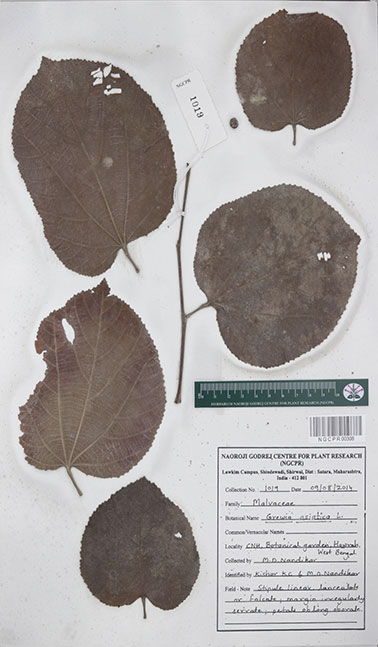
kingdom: Plantae
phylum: Tracheophyta
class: Magnoliopsida
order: Malvales
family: Malvaceae
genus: Grewia
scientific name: Grewia asiatica
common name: Phalsa
